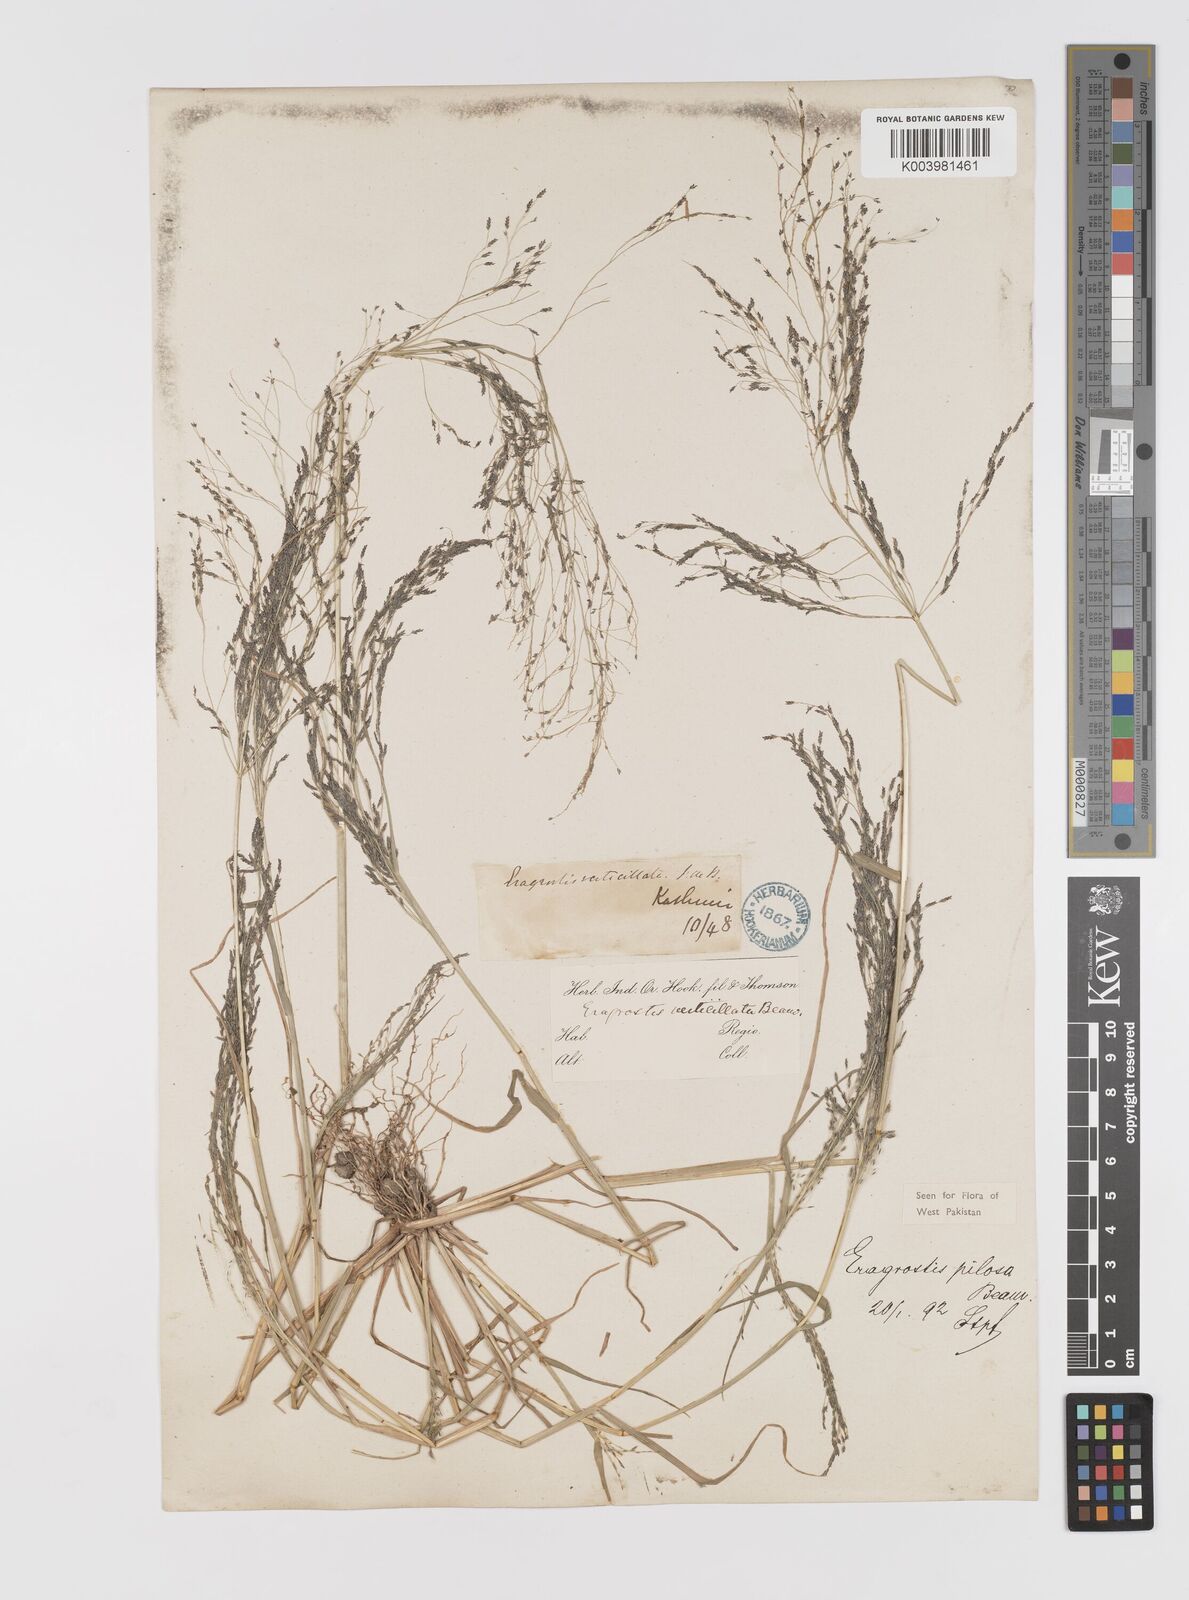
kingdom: Plantae
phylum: Tracheophyta
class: Liliopsida
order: Poales
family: Poaceae
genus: Eragrostis
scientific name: Eragrostis pilosa
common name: Indian lovegrass
